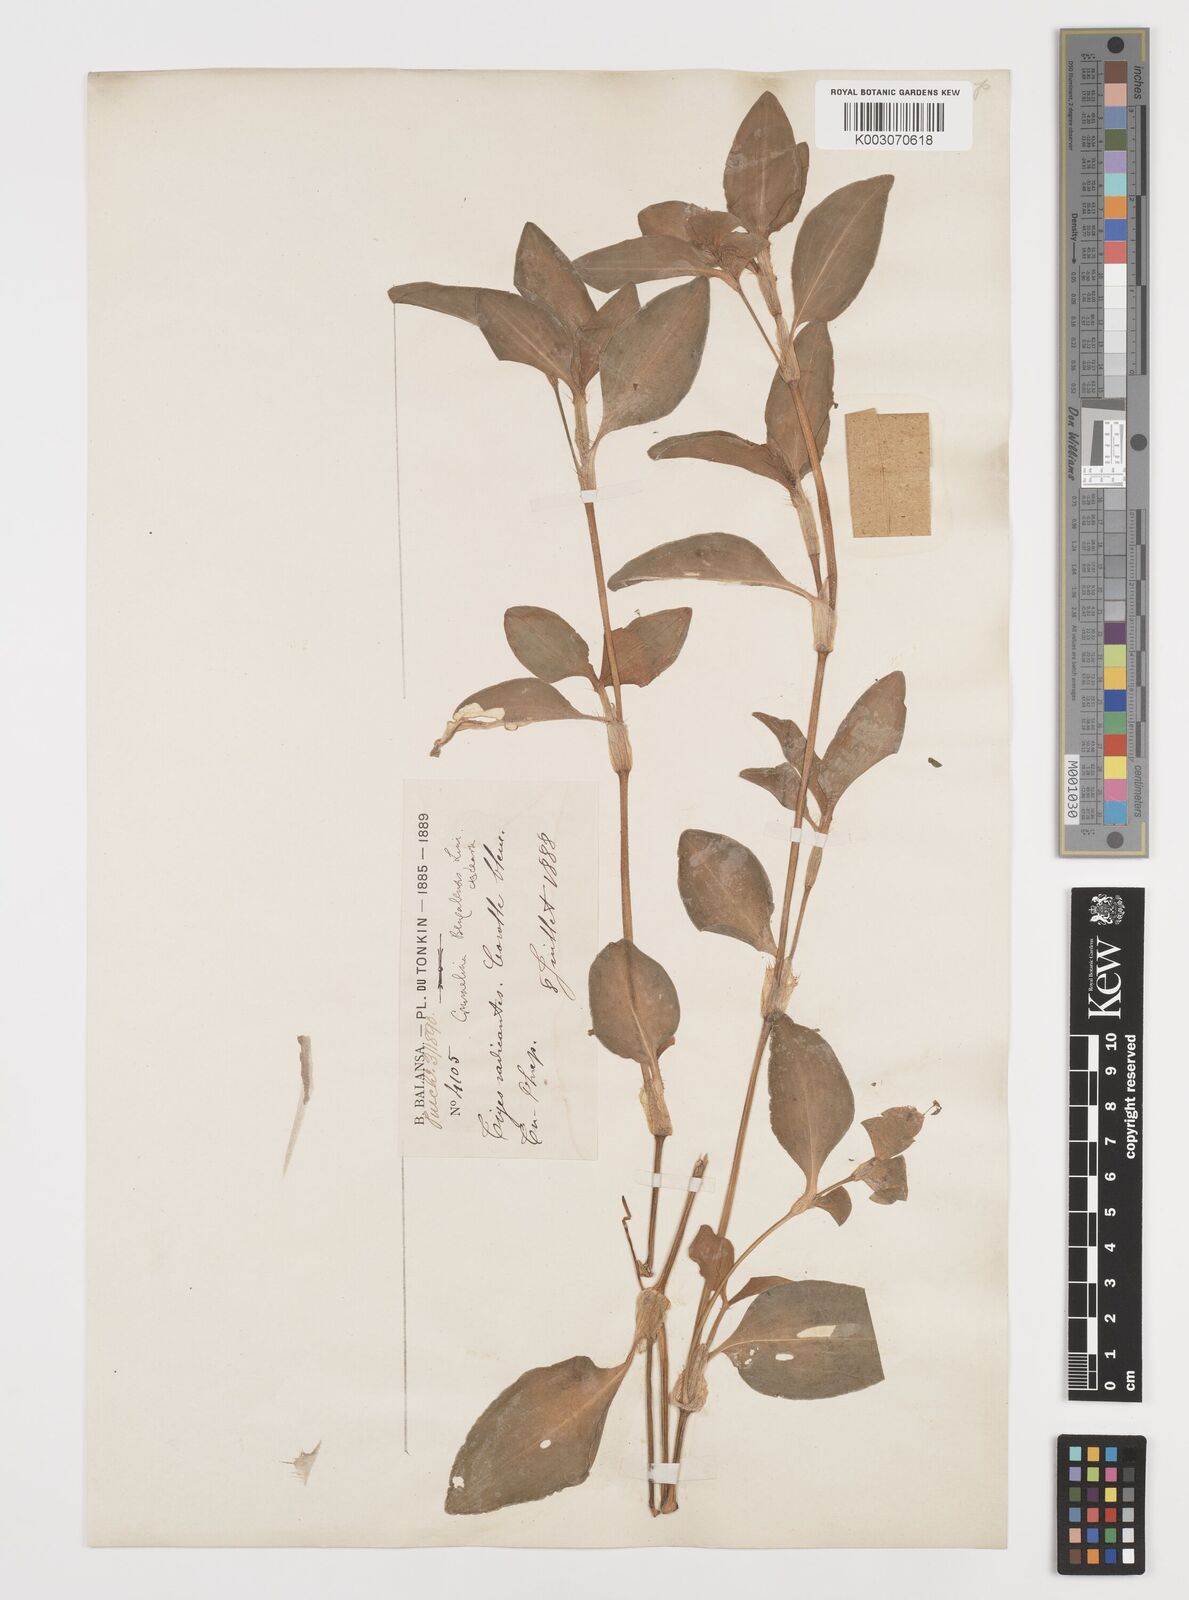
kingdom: Plantae
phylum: Tracheophyta
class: Liliopsida
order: Commelinales
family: Commelinaceae
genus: Commelina
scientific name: Commelina benghalensis
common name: Jio
